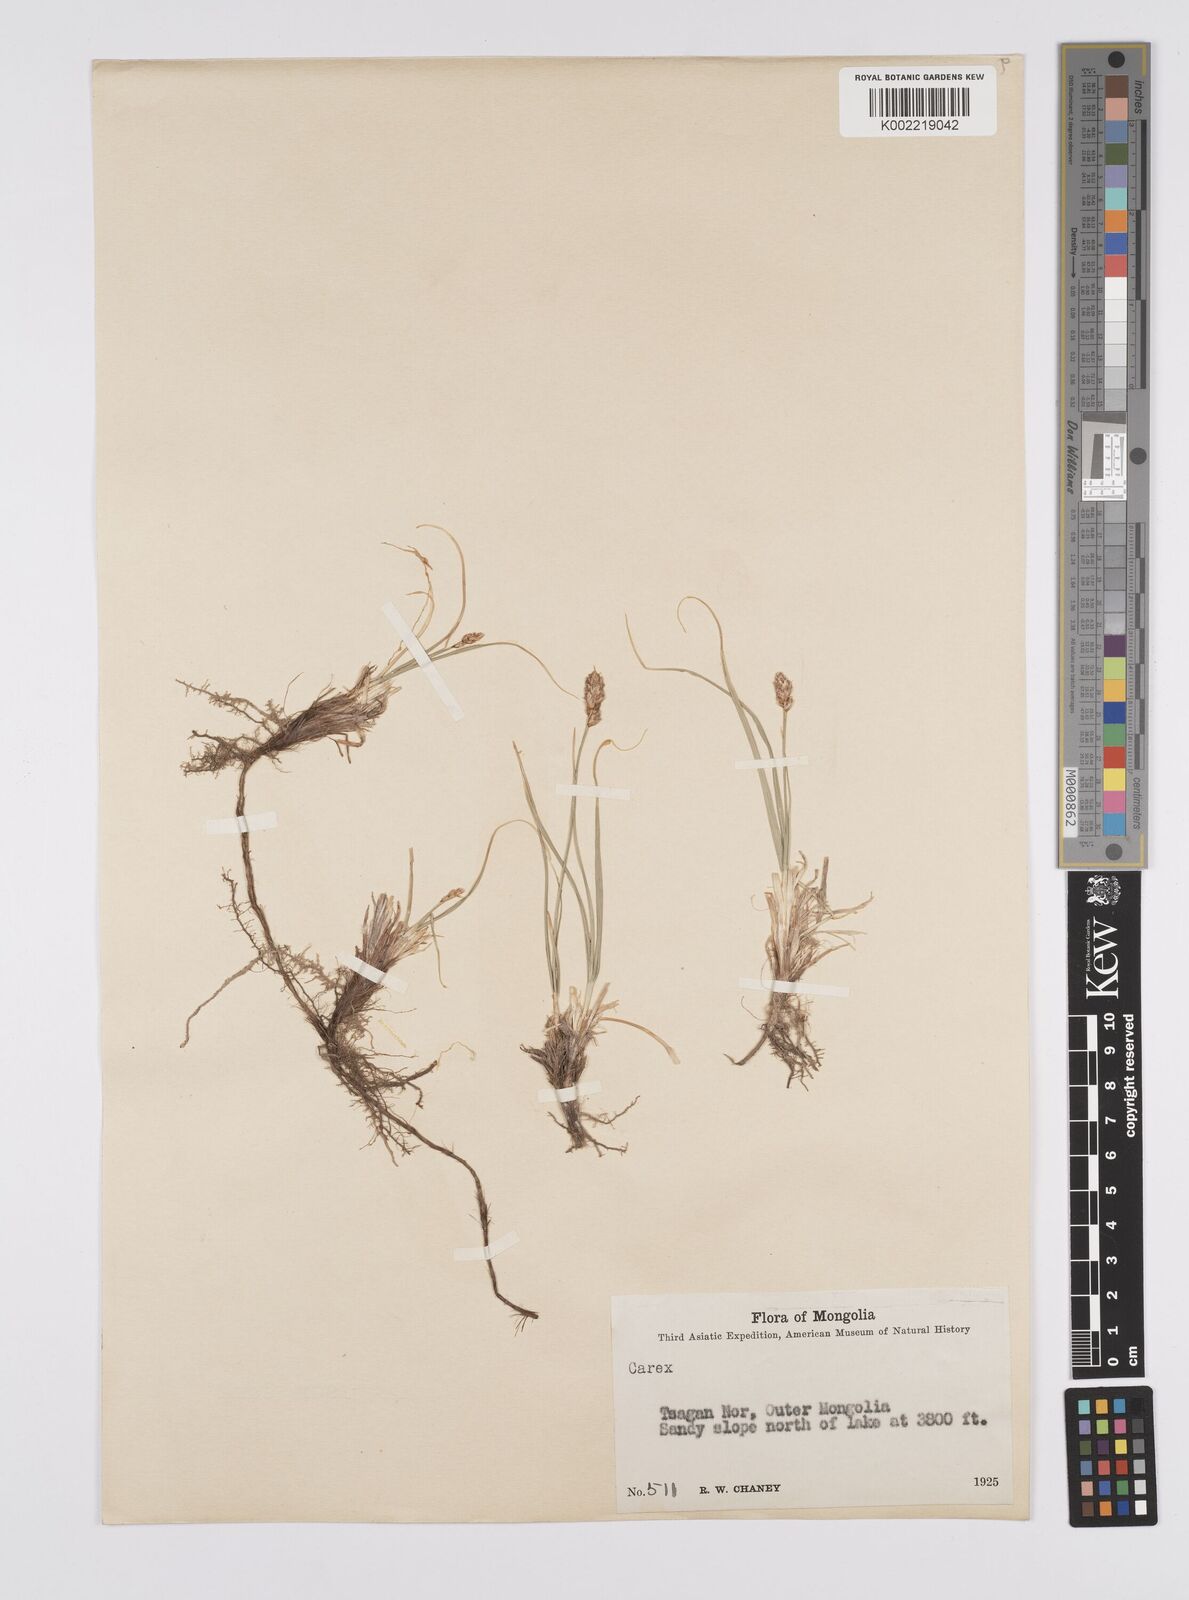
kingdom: Plantae
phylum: Tracheophyta
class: Liliopsida
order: Poales
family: Cyperaceae
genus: Carex
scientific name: Carex yamatsutana
